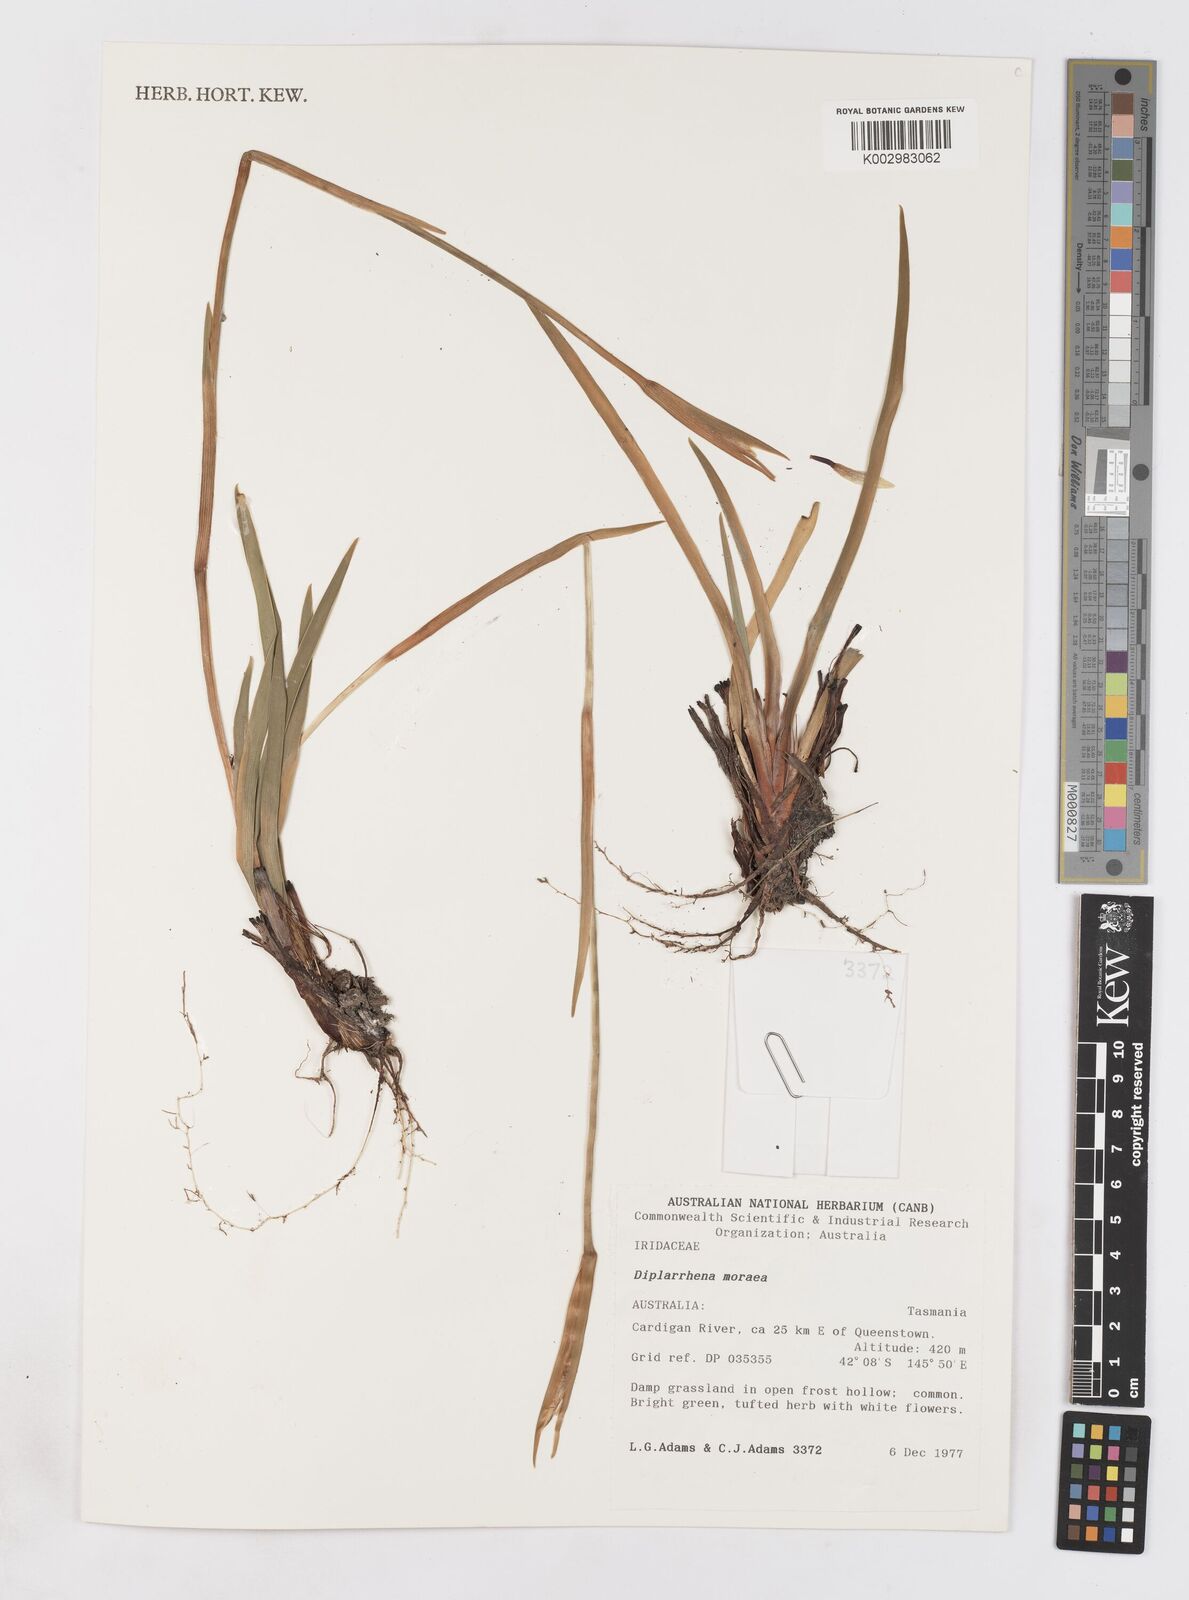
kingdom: Plantae
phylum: Tracheophyta
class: Liliopsida
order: Asparagales
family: Iridaceae
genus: Diplarrena
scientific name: Diplarrena moraea
